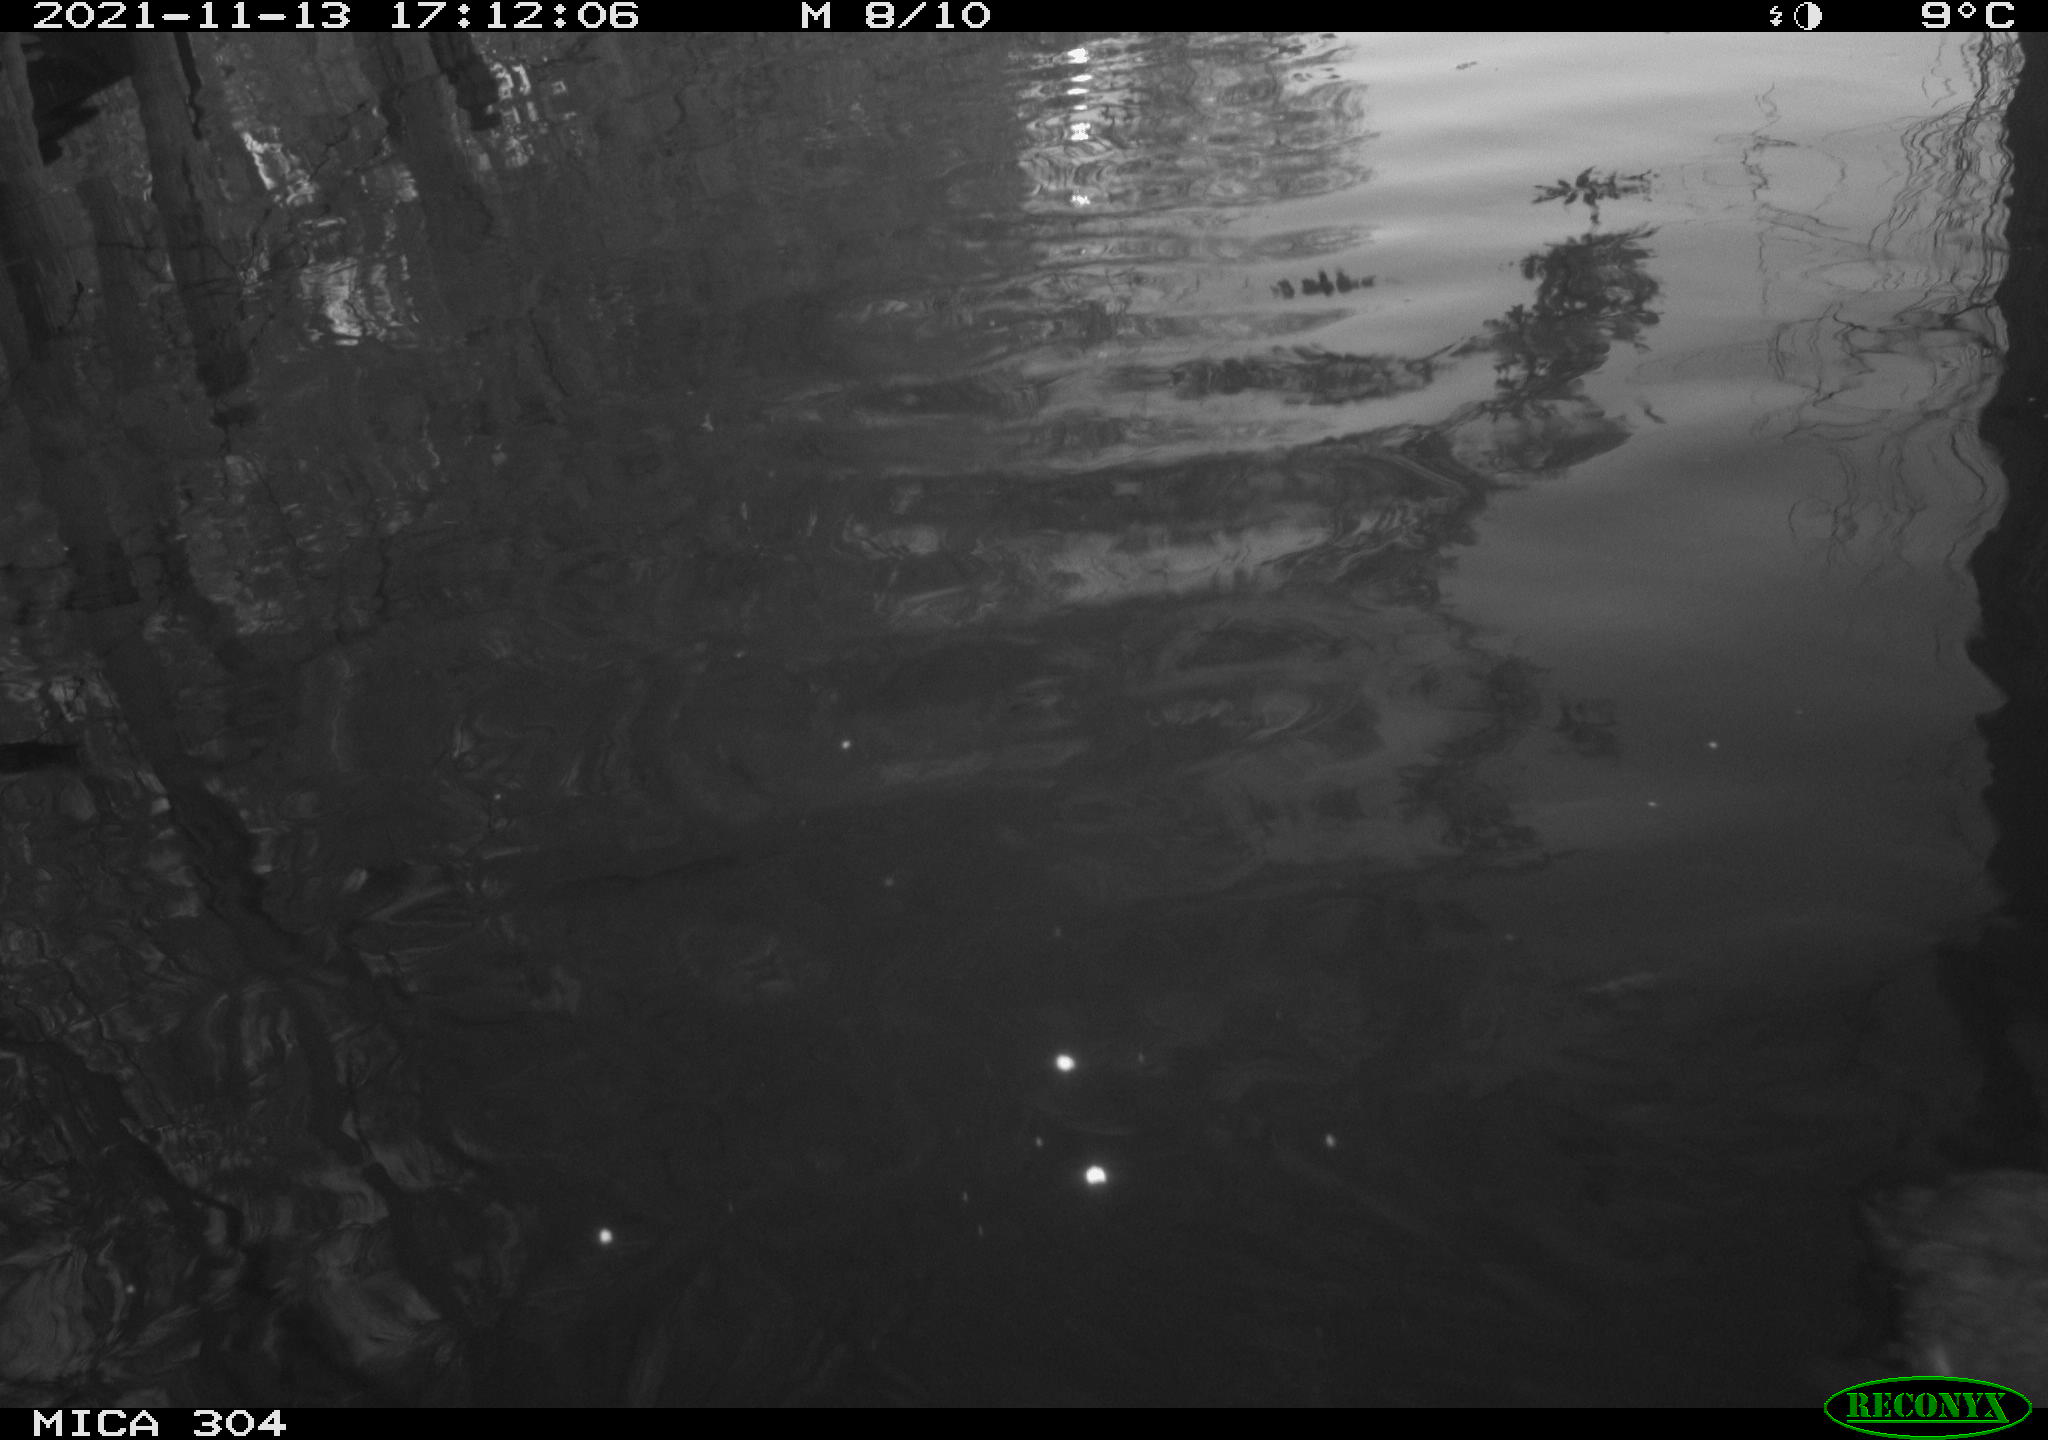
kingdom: Animalia
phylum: Chordata
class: Aves
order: Gruiformes
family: Rallidae
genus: Fulica
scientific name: Fulica atra
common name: Eurasian coot
